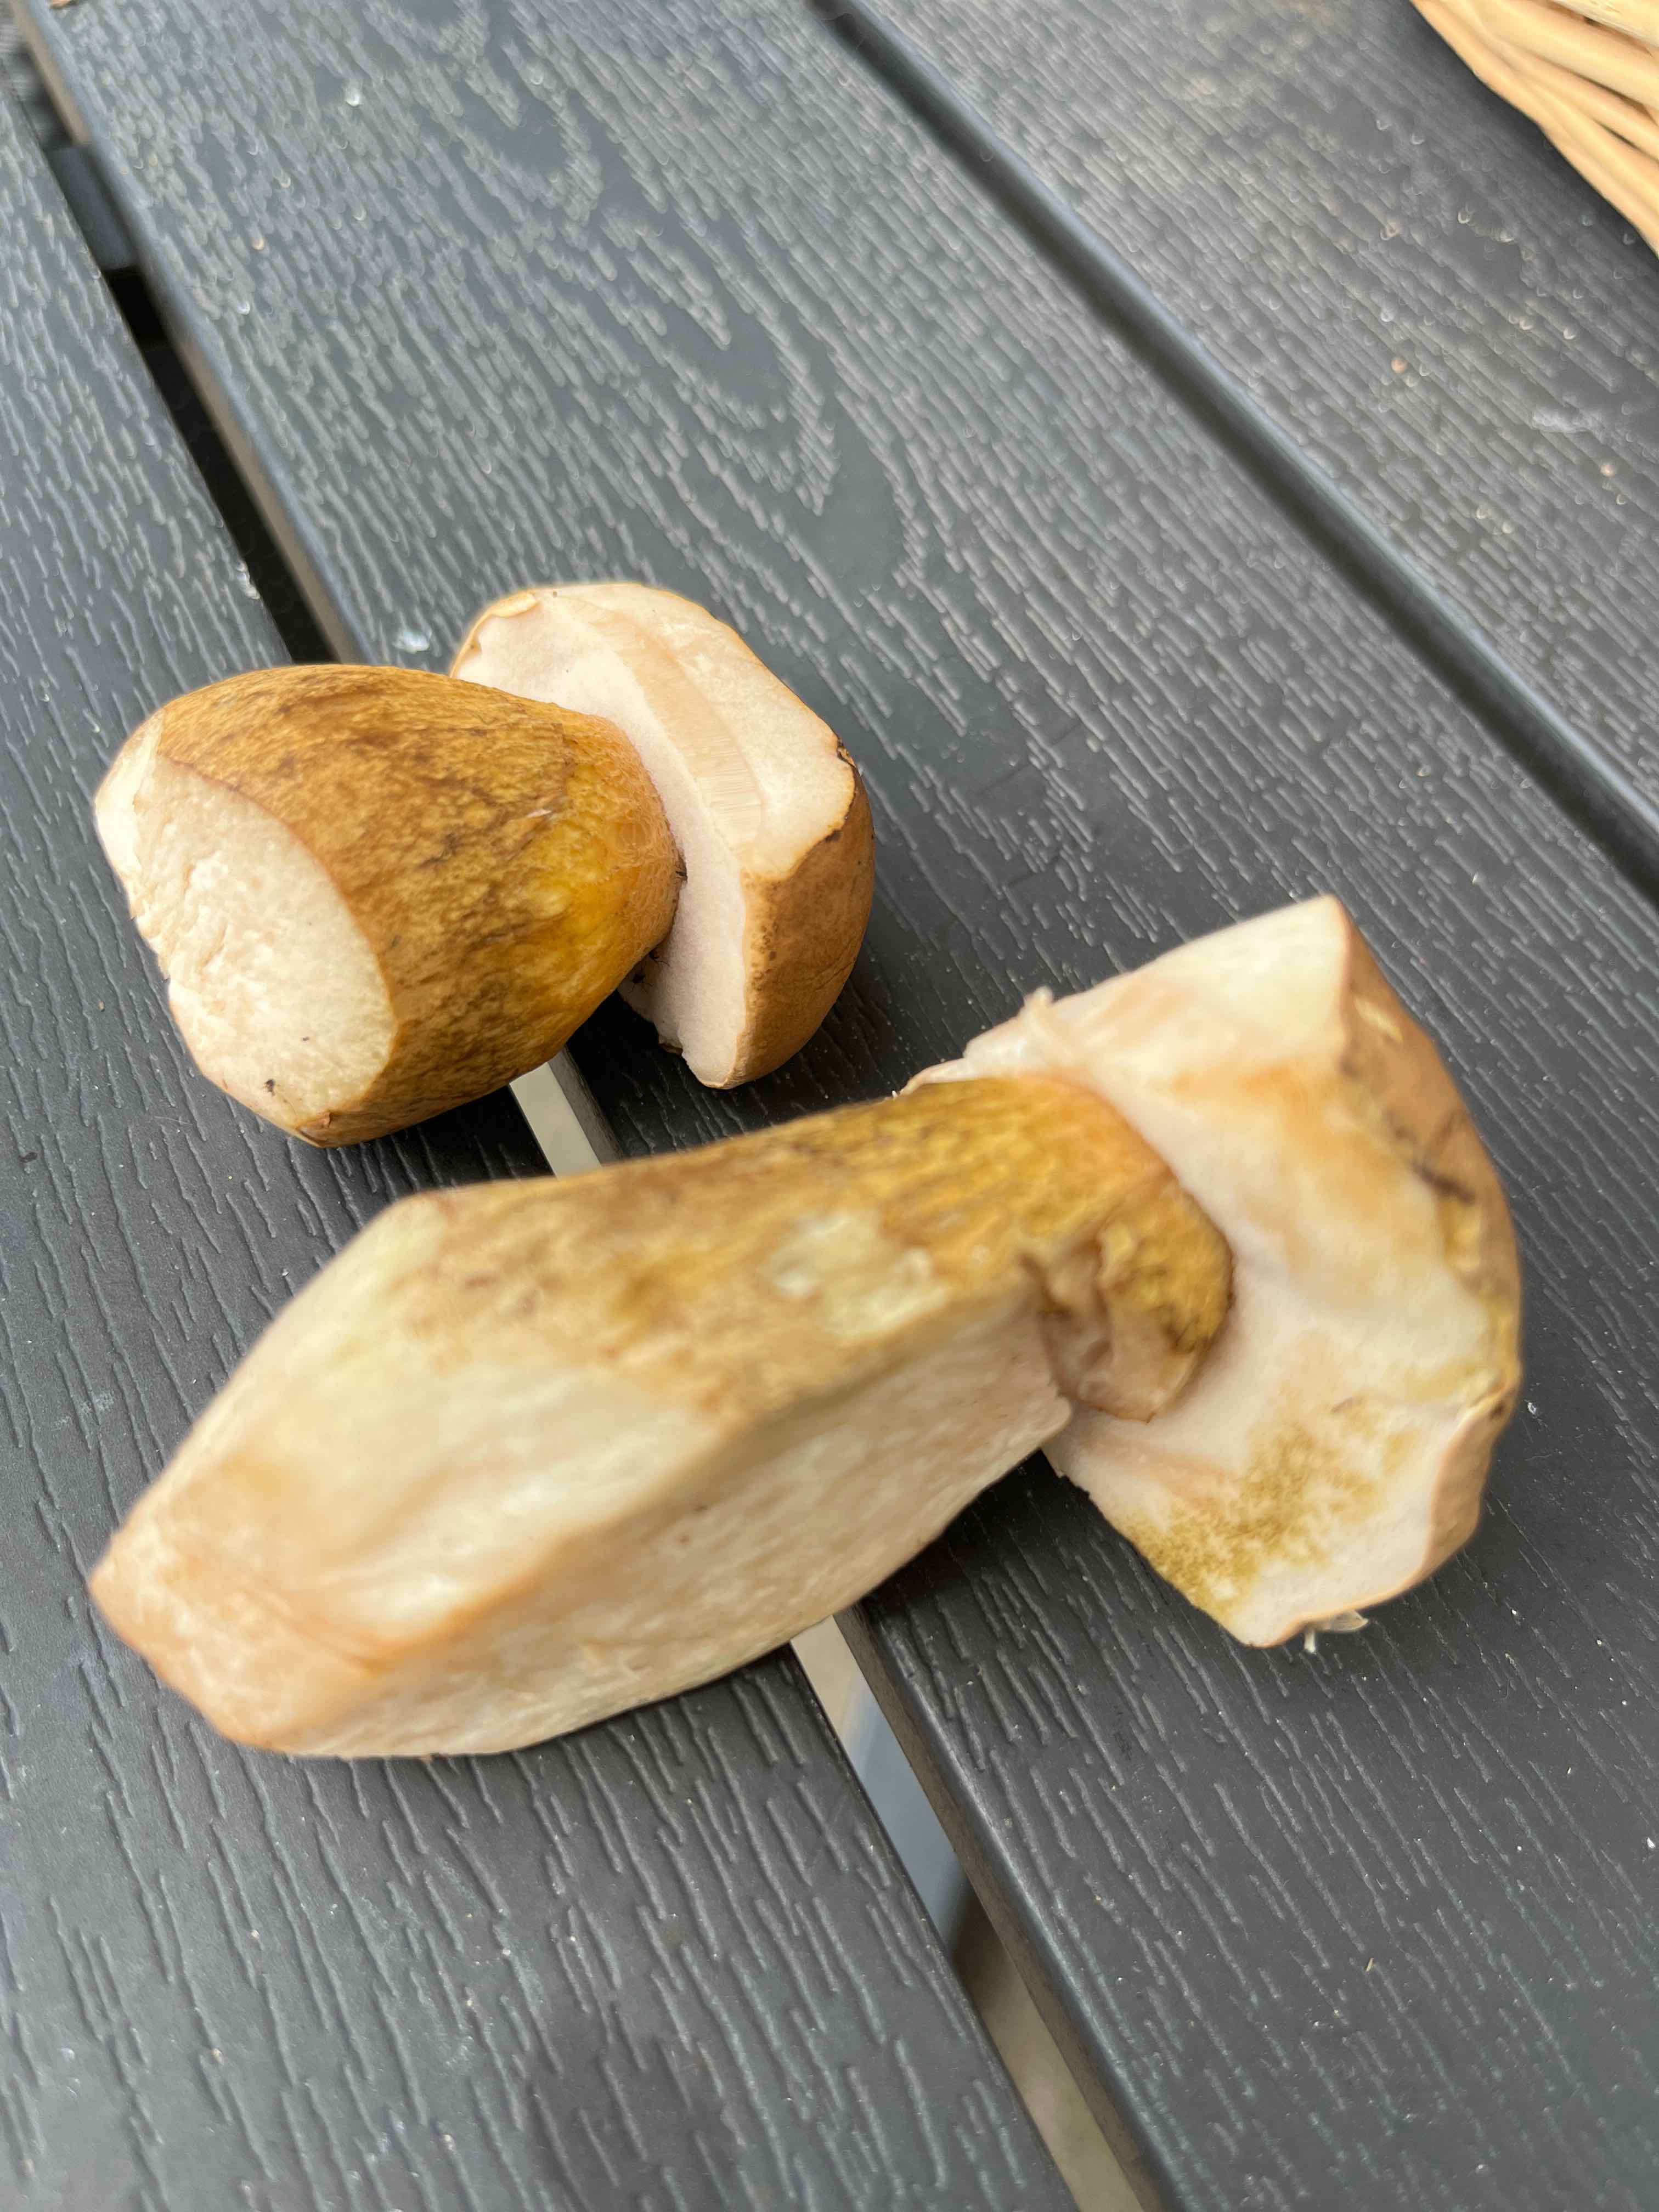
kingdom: Fungi
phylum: Basidiomycota
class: Agaricomycetes
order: Boletales
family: Boletaceae
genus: Tylopilus
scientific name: Tylopilus felleus
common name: galderørhat
